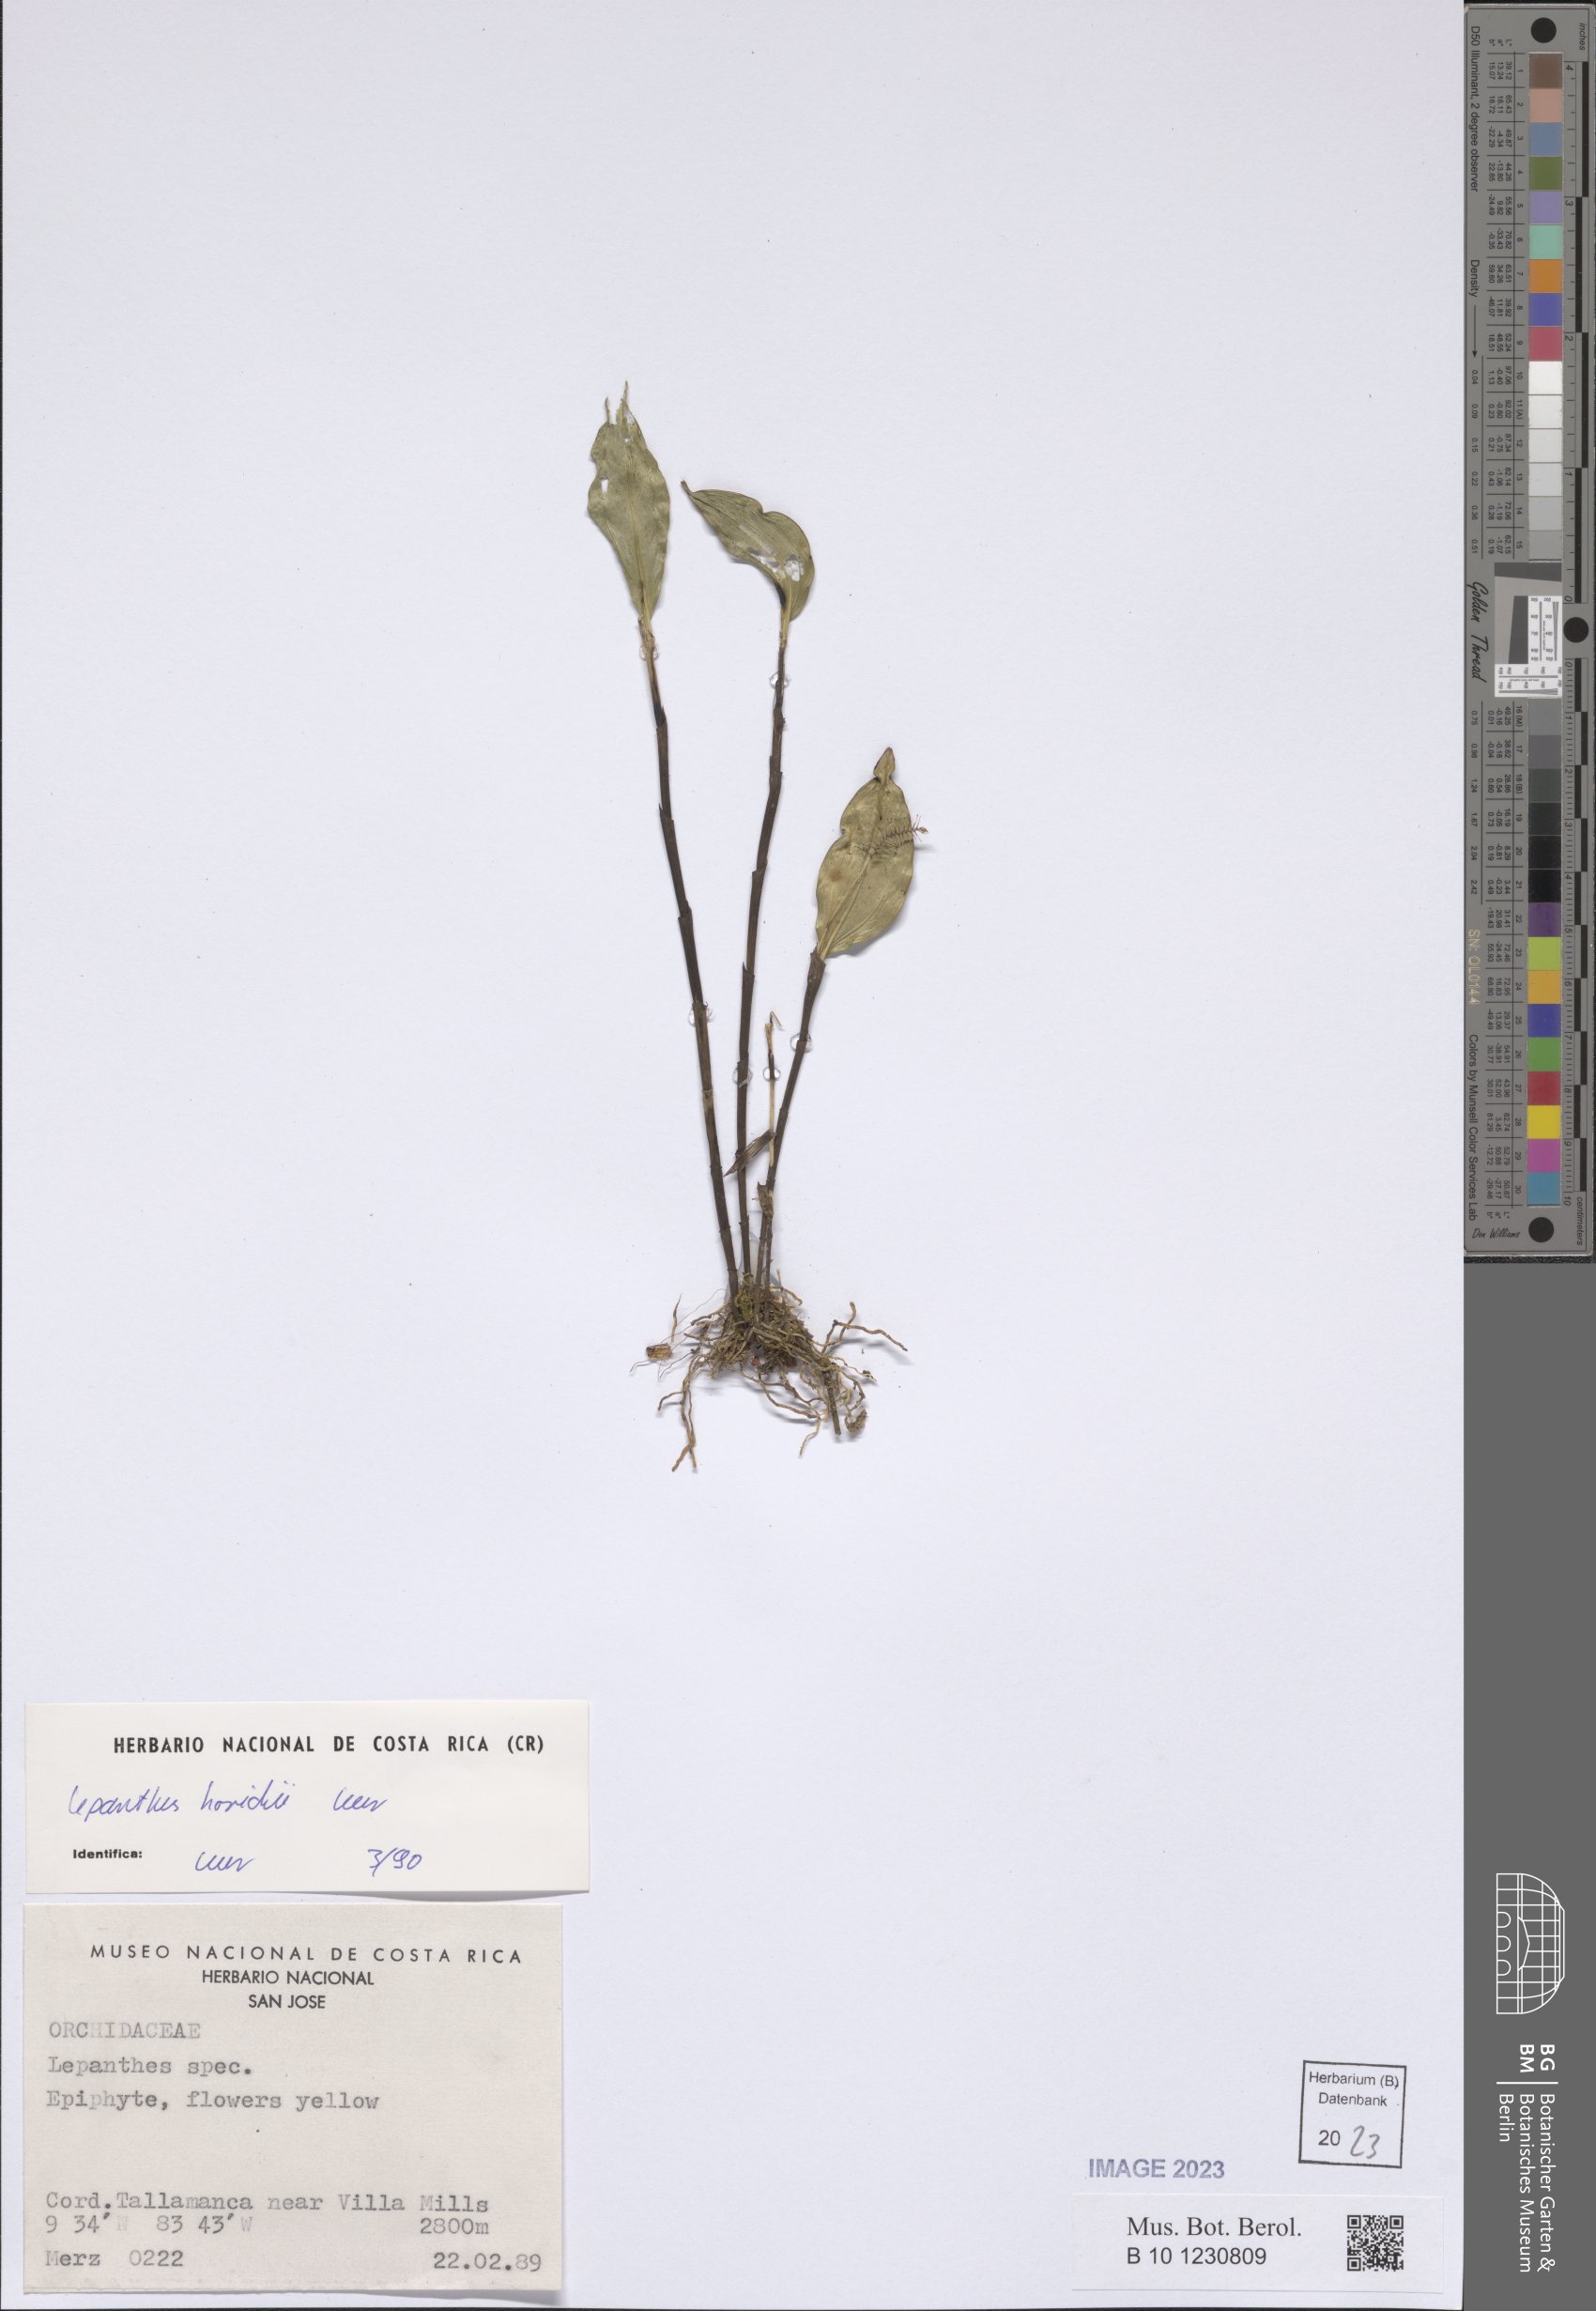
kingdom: Plantae
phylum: Tracheophyta
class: Liliopsida
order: Asparagales
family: Orchidaceae
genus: Lepanthes
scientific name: Lepanthes horichii
